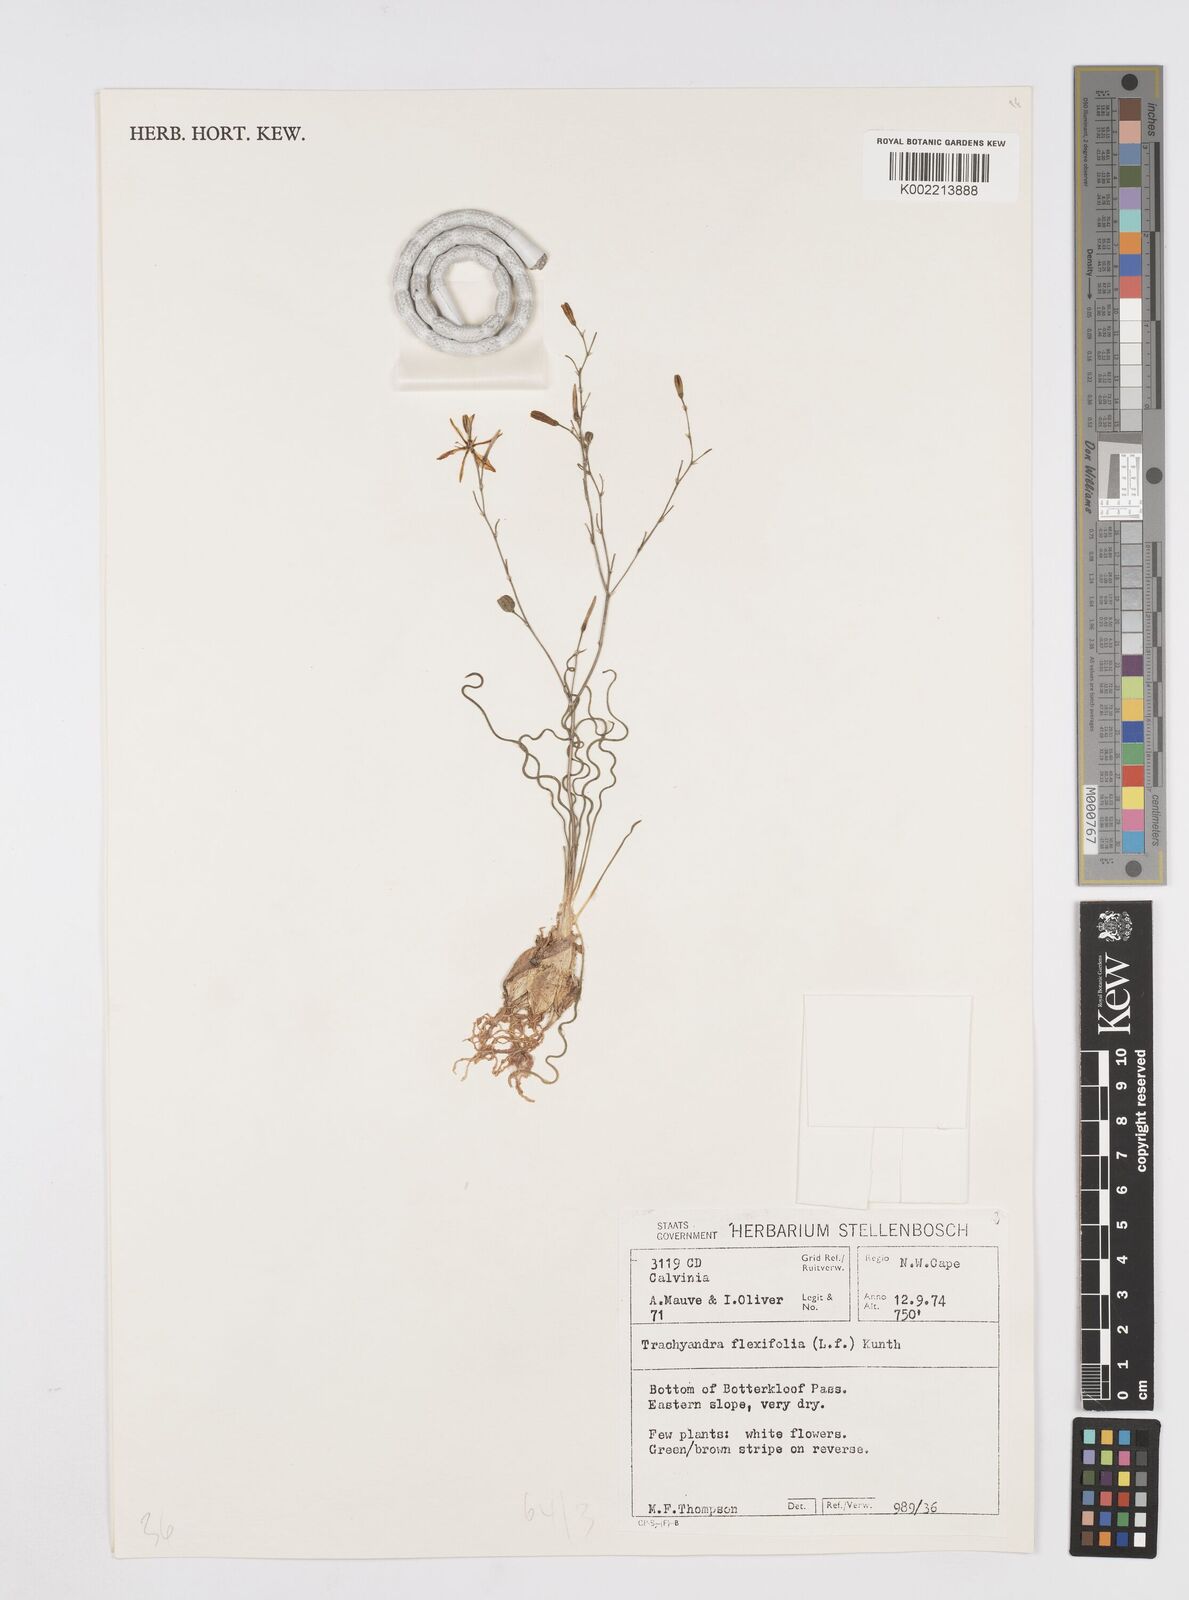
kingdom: Plantae
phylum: Tracheophyta
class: Liliopsida
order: Asparagales
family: Asphodelaceae
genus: Trachyandra
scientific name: Trachyandra flexifolia
